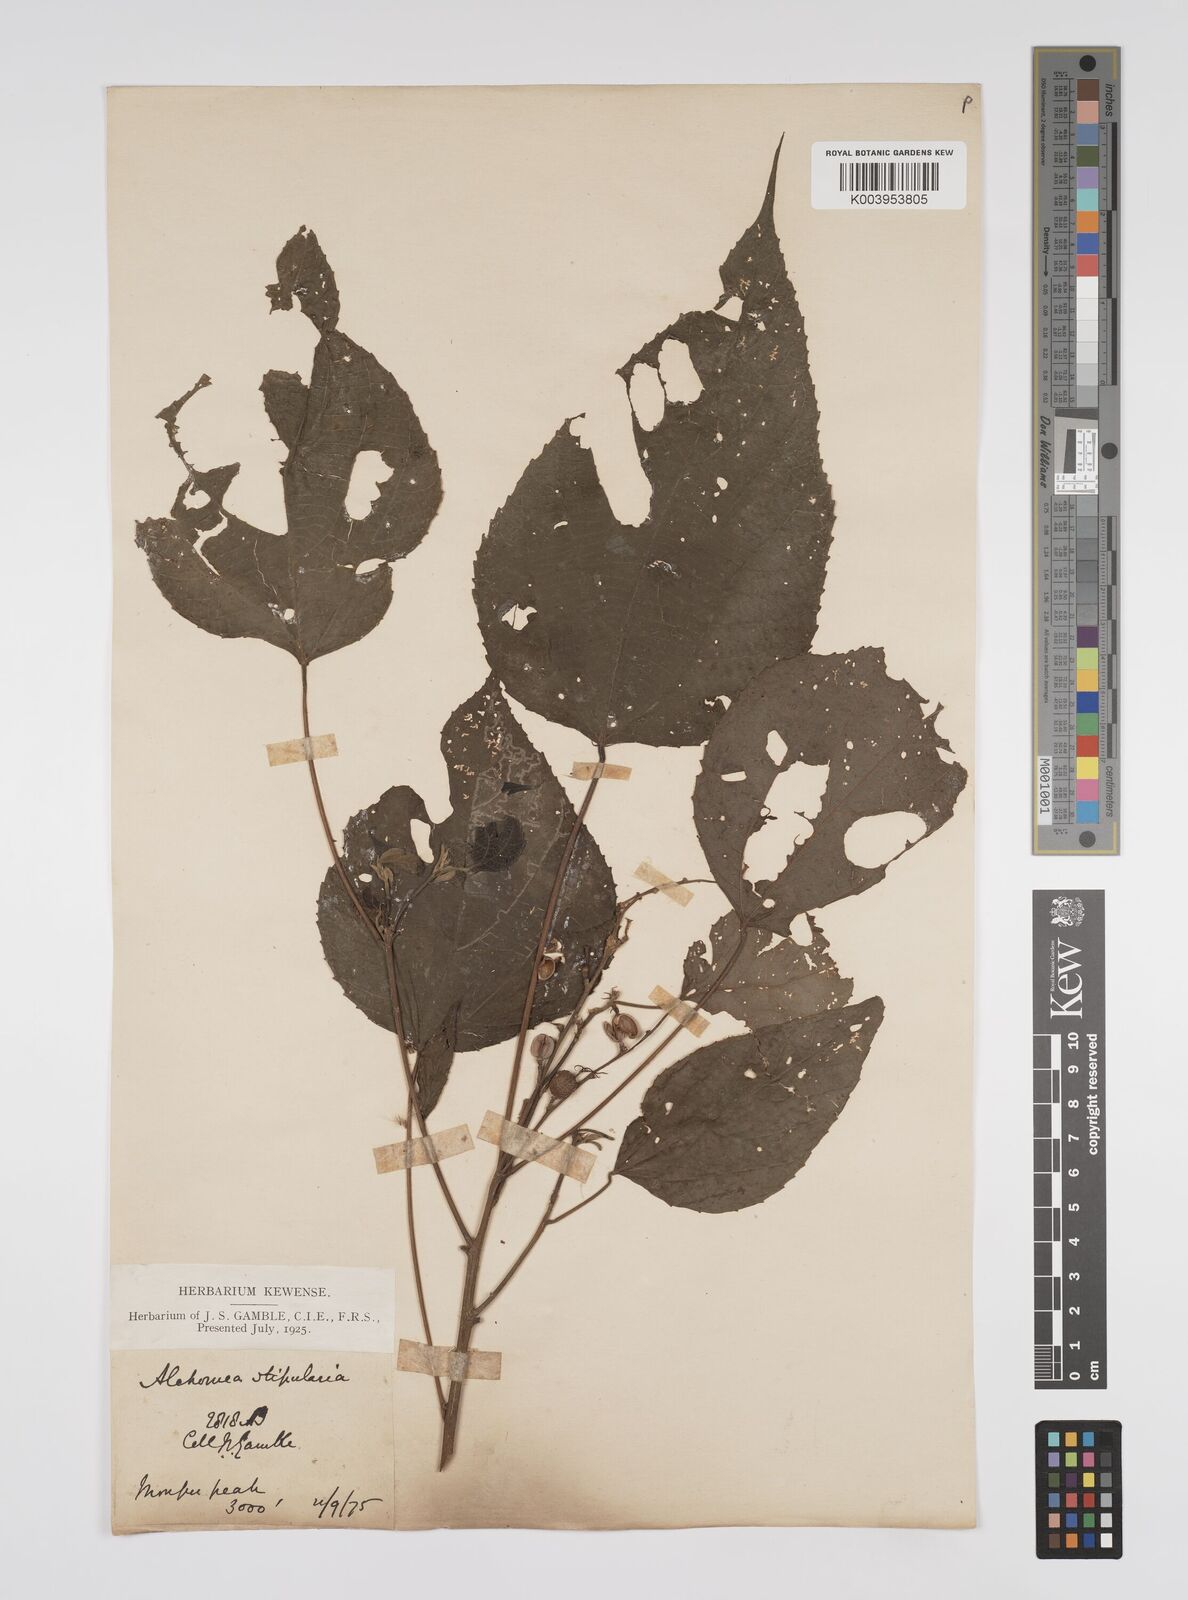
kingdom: Plantae
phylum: Tracheophyta
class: Magnoliopsida
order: Malpighiales
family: Euphorbiaceae
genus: Alchornea
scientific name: Alchornea tiliifolia
